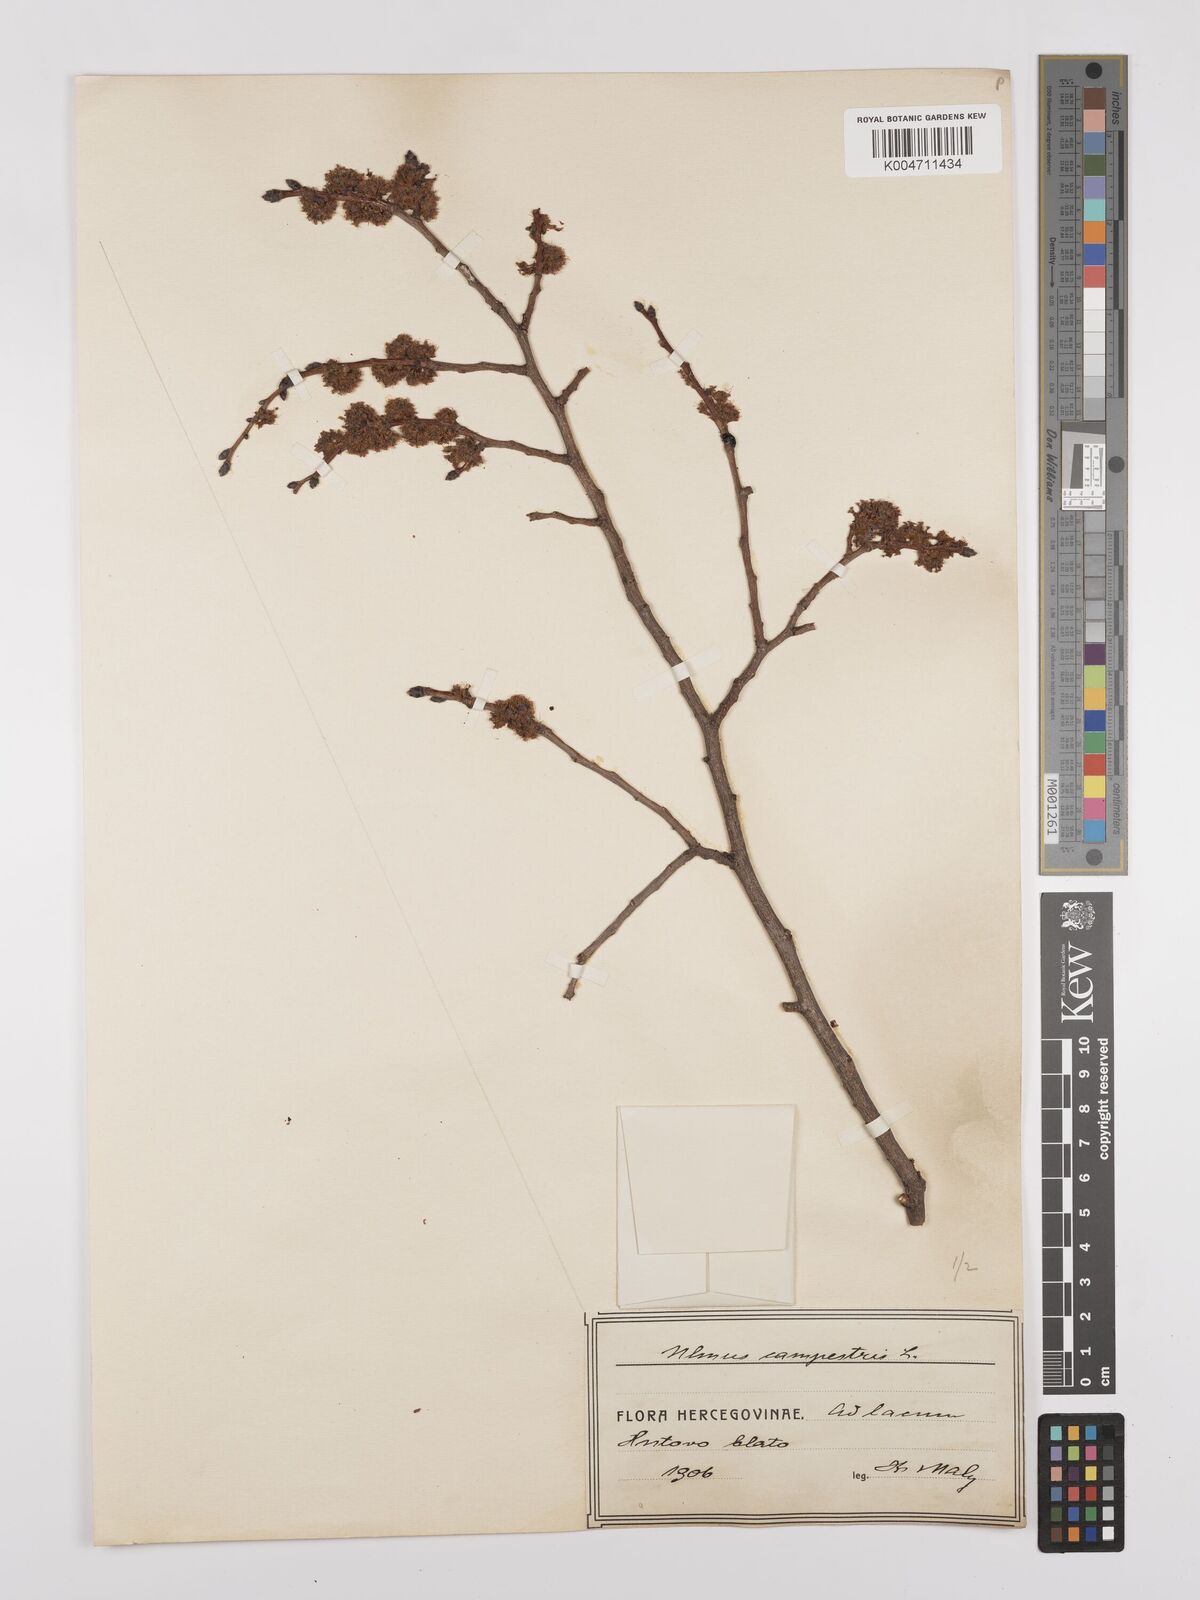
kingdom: Plantae
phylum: Tracheophyta
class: Magnoliopsida
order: Rosales
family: Ulmaceae
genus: Ulmus
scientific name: Ulmus minor
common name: Small-leaved elm
